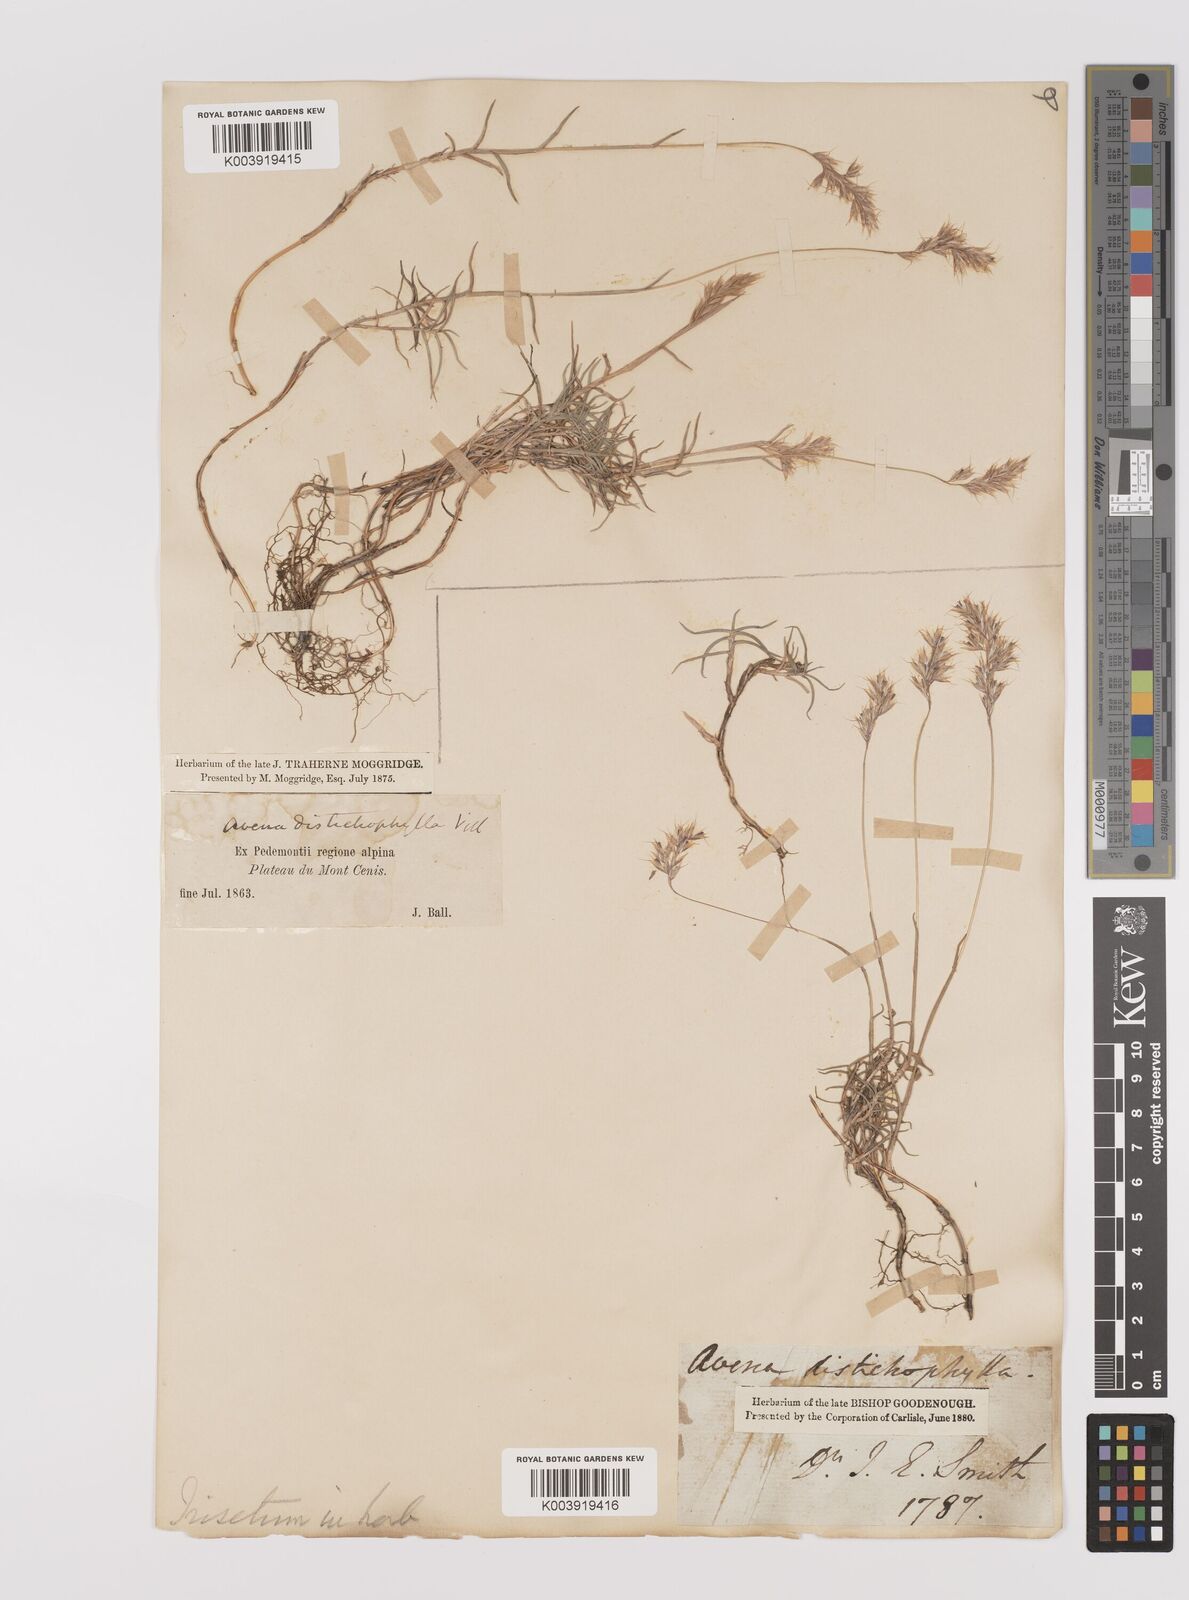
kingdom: Plantae
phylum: Tracheophyta
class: Liliopsida
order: Poales
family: Poaceae
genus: Acrospelion
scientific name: Acrospelion distichophyllum
